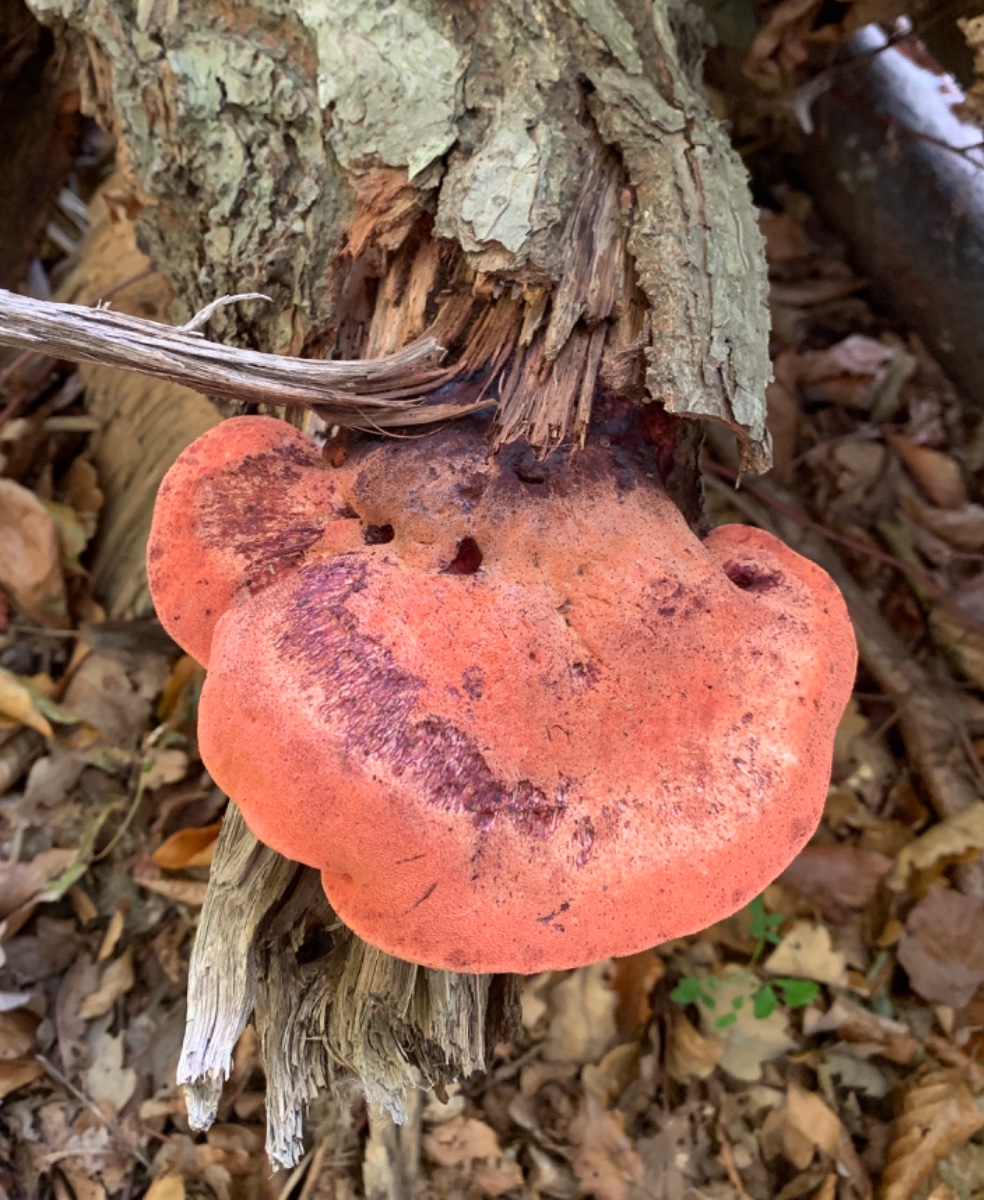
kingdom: Fungi
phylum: Basidiomycota
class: Agaricomycetes
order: Agaricales
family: Fistulinaceae
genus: Fistulina
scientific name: Fistulina hepatica
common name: oksetunge
